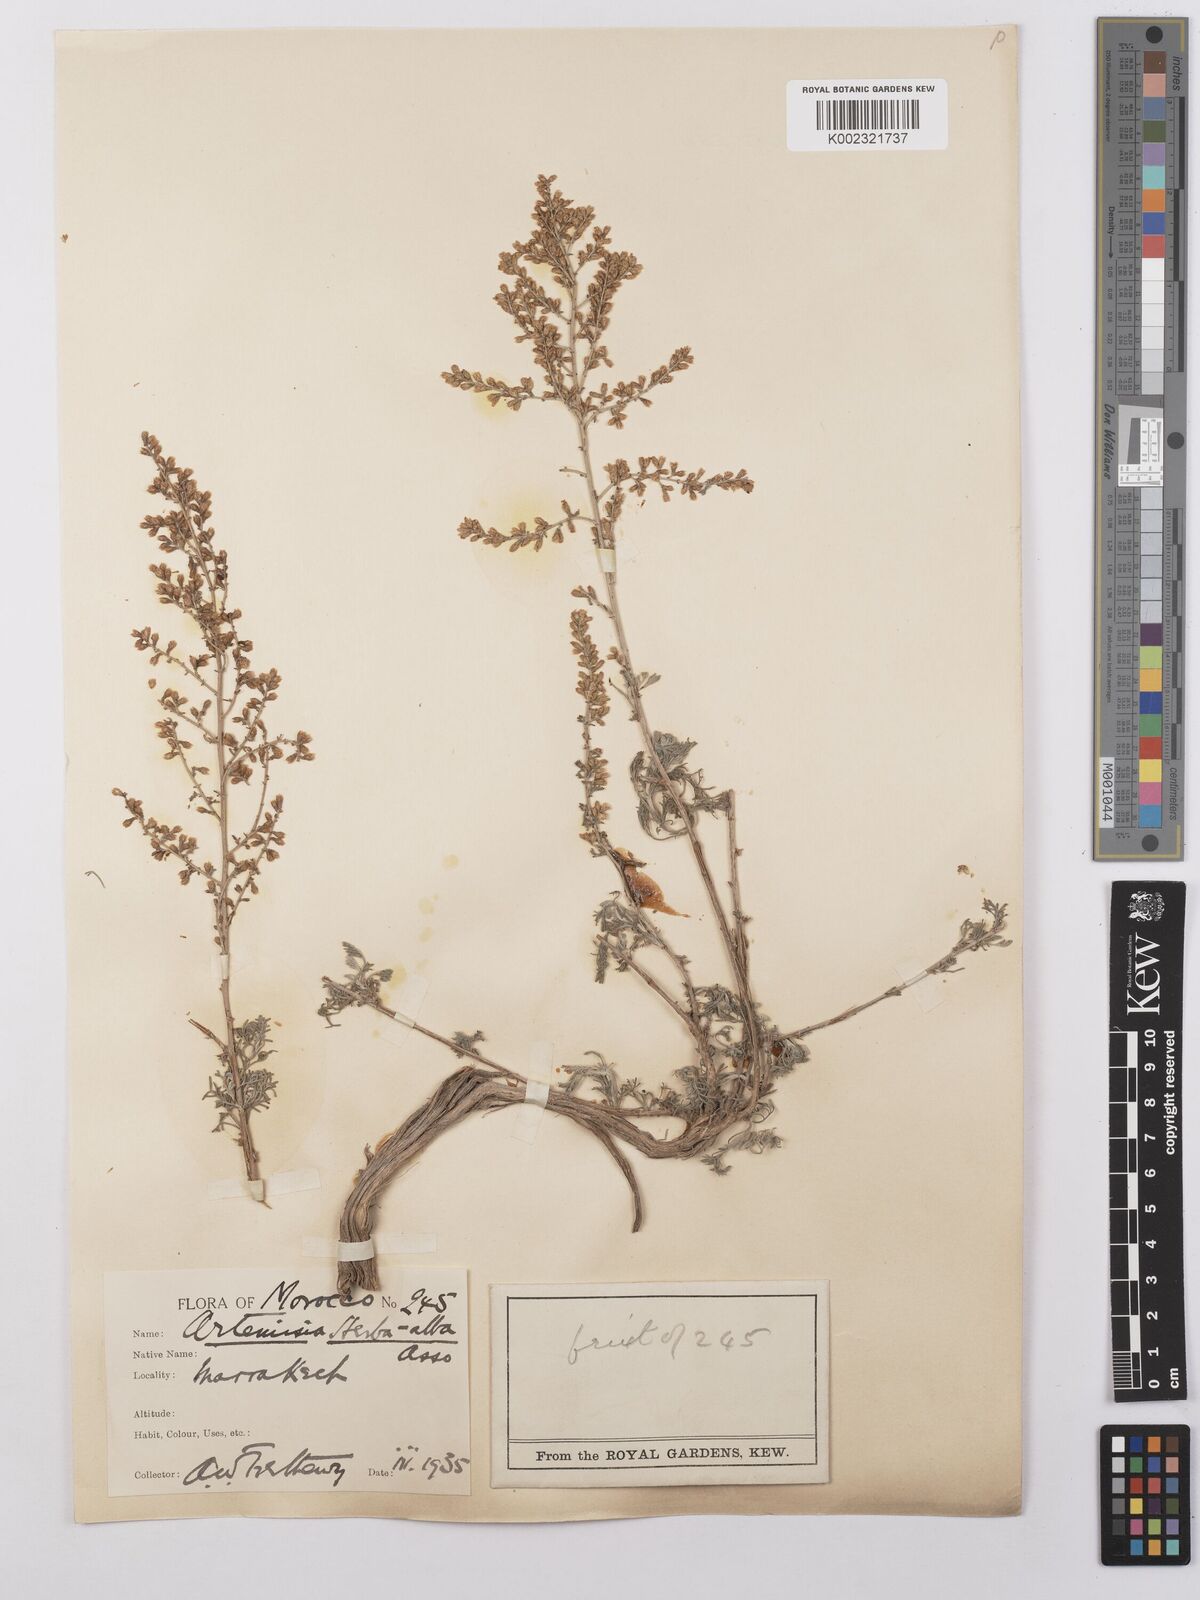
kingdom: Plantae
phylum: Tracheophyta
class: Magnoliopsida
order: Asterales
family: Asteraceae
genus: Artemisia
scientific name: Artemisia herba-alba
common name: White wormwood
